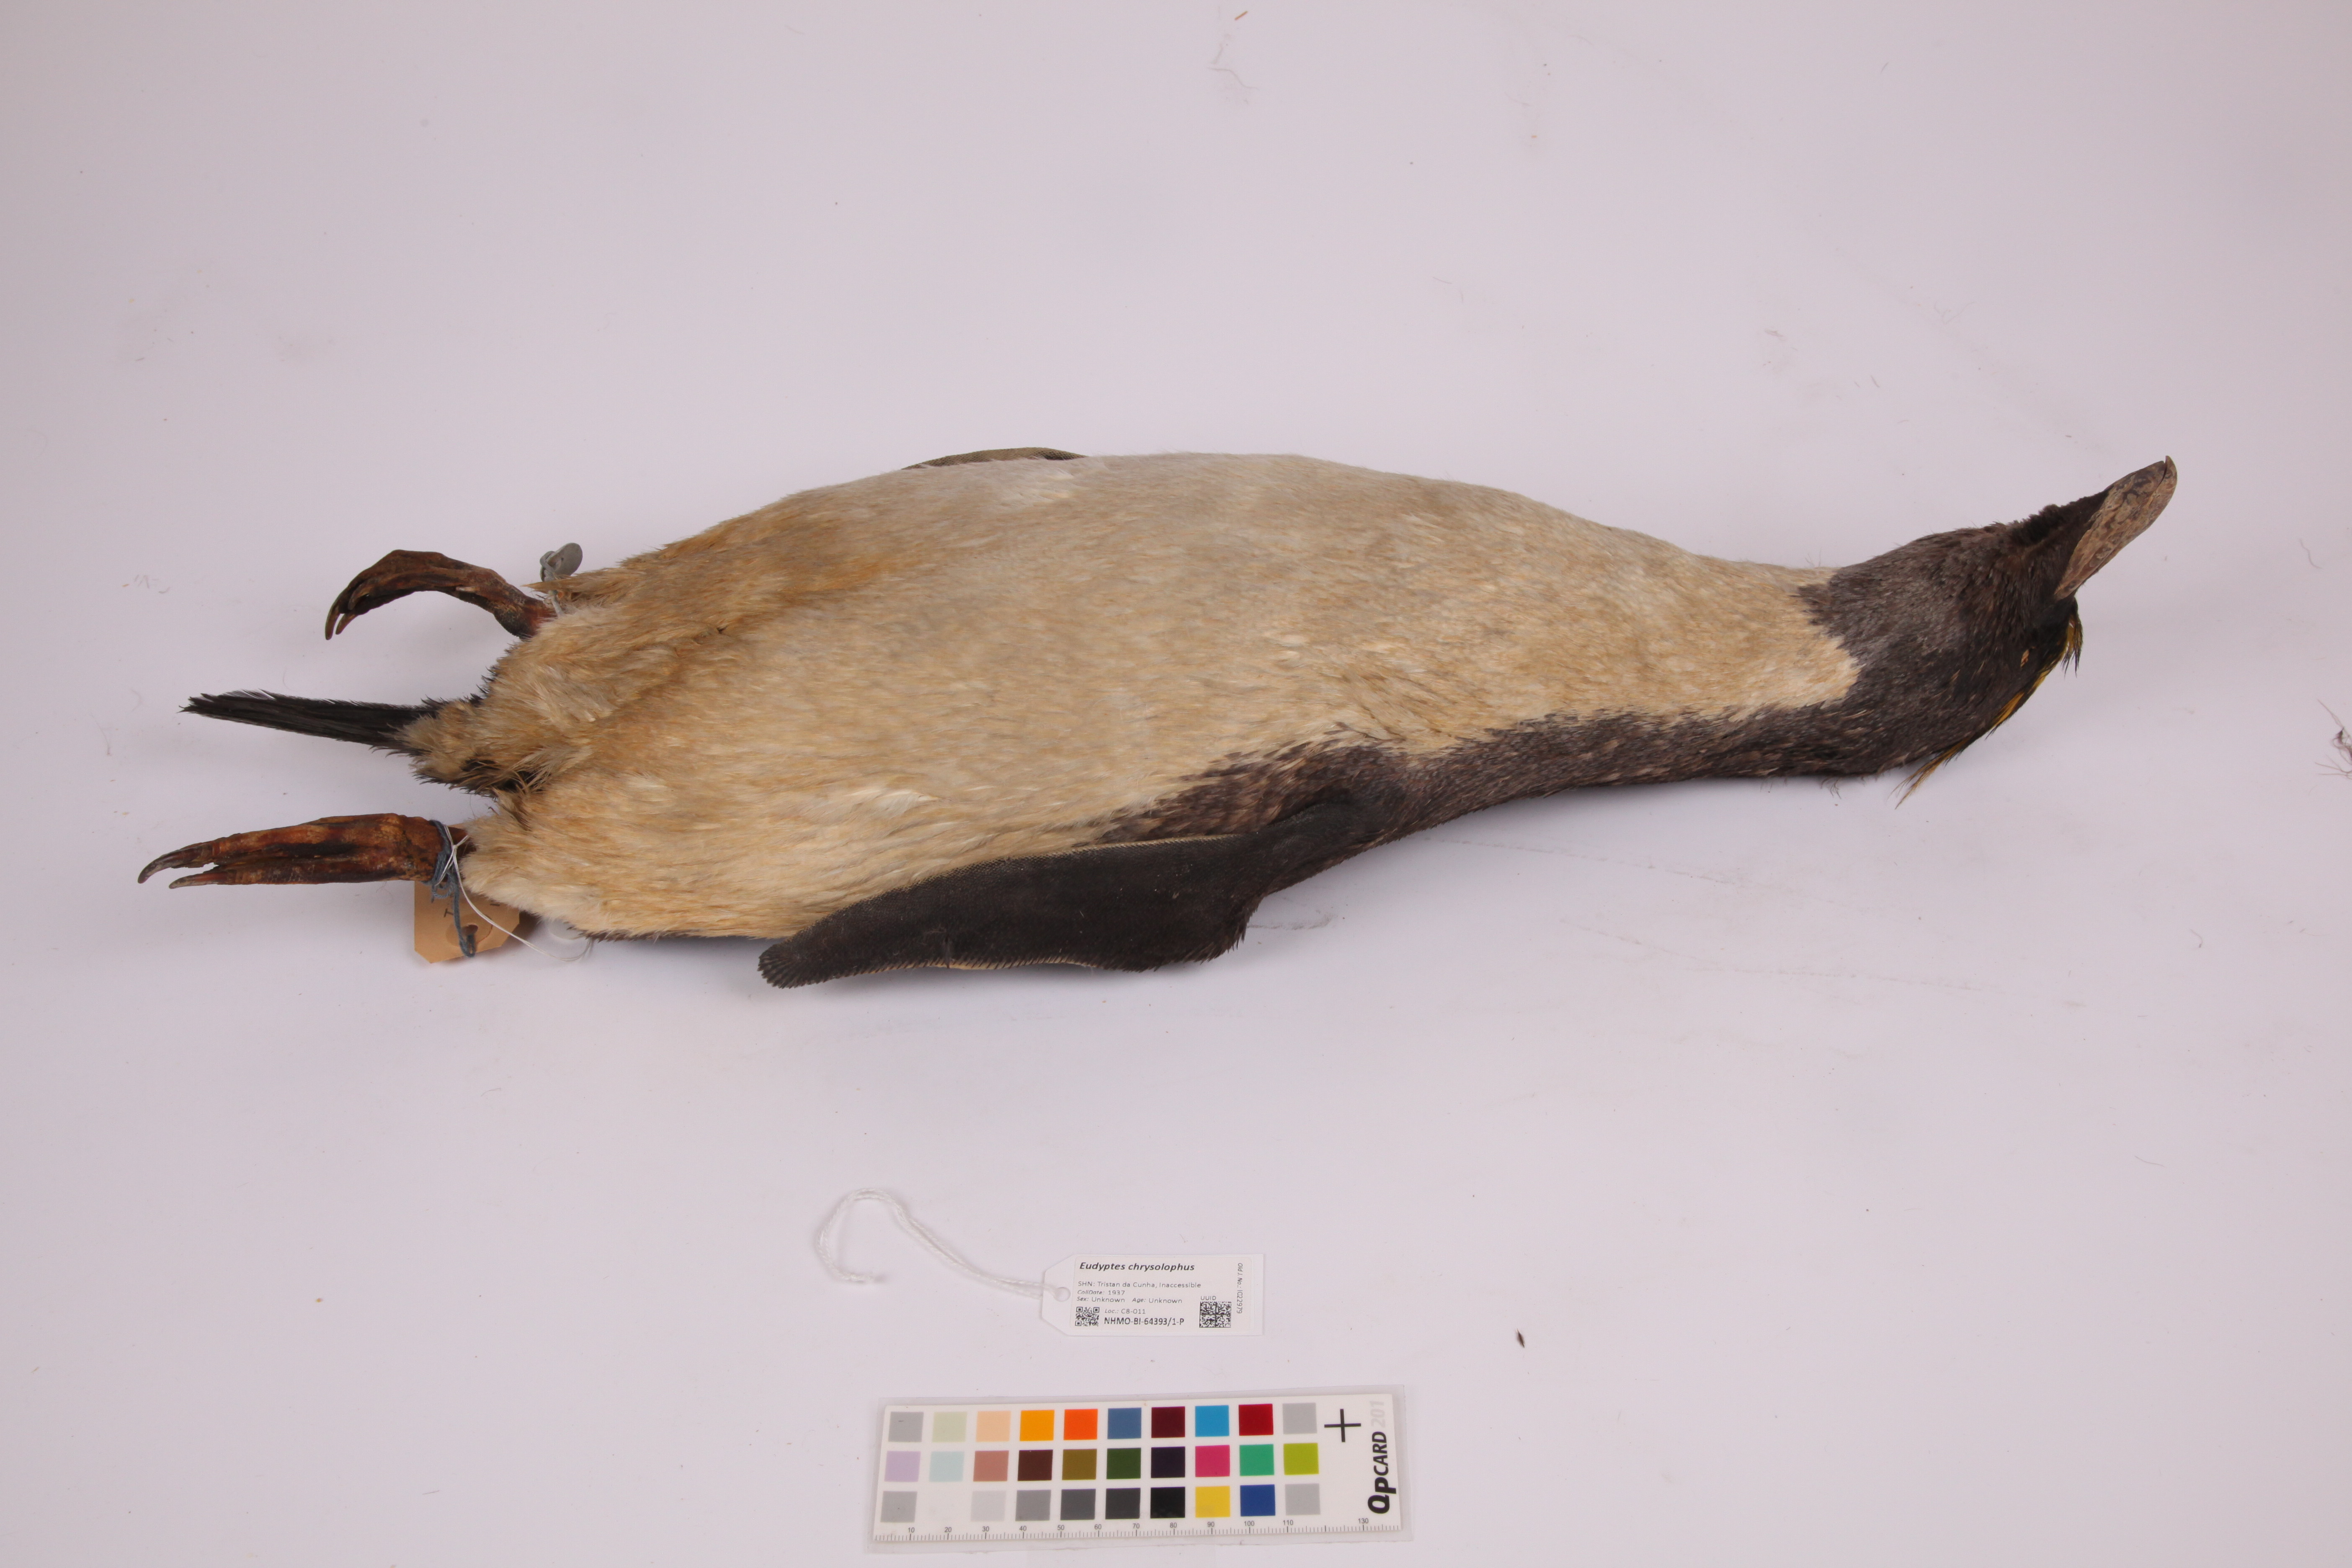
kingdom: Animalia
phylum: Chordata
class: Aves
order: Sphenisciformes
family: Spheniscidae
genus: Eudyptes
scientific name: Eudyptes chrysolophus
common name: Macaroni penguin
